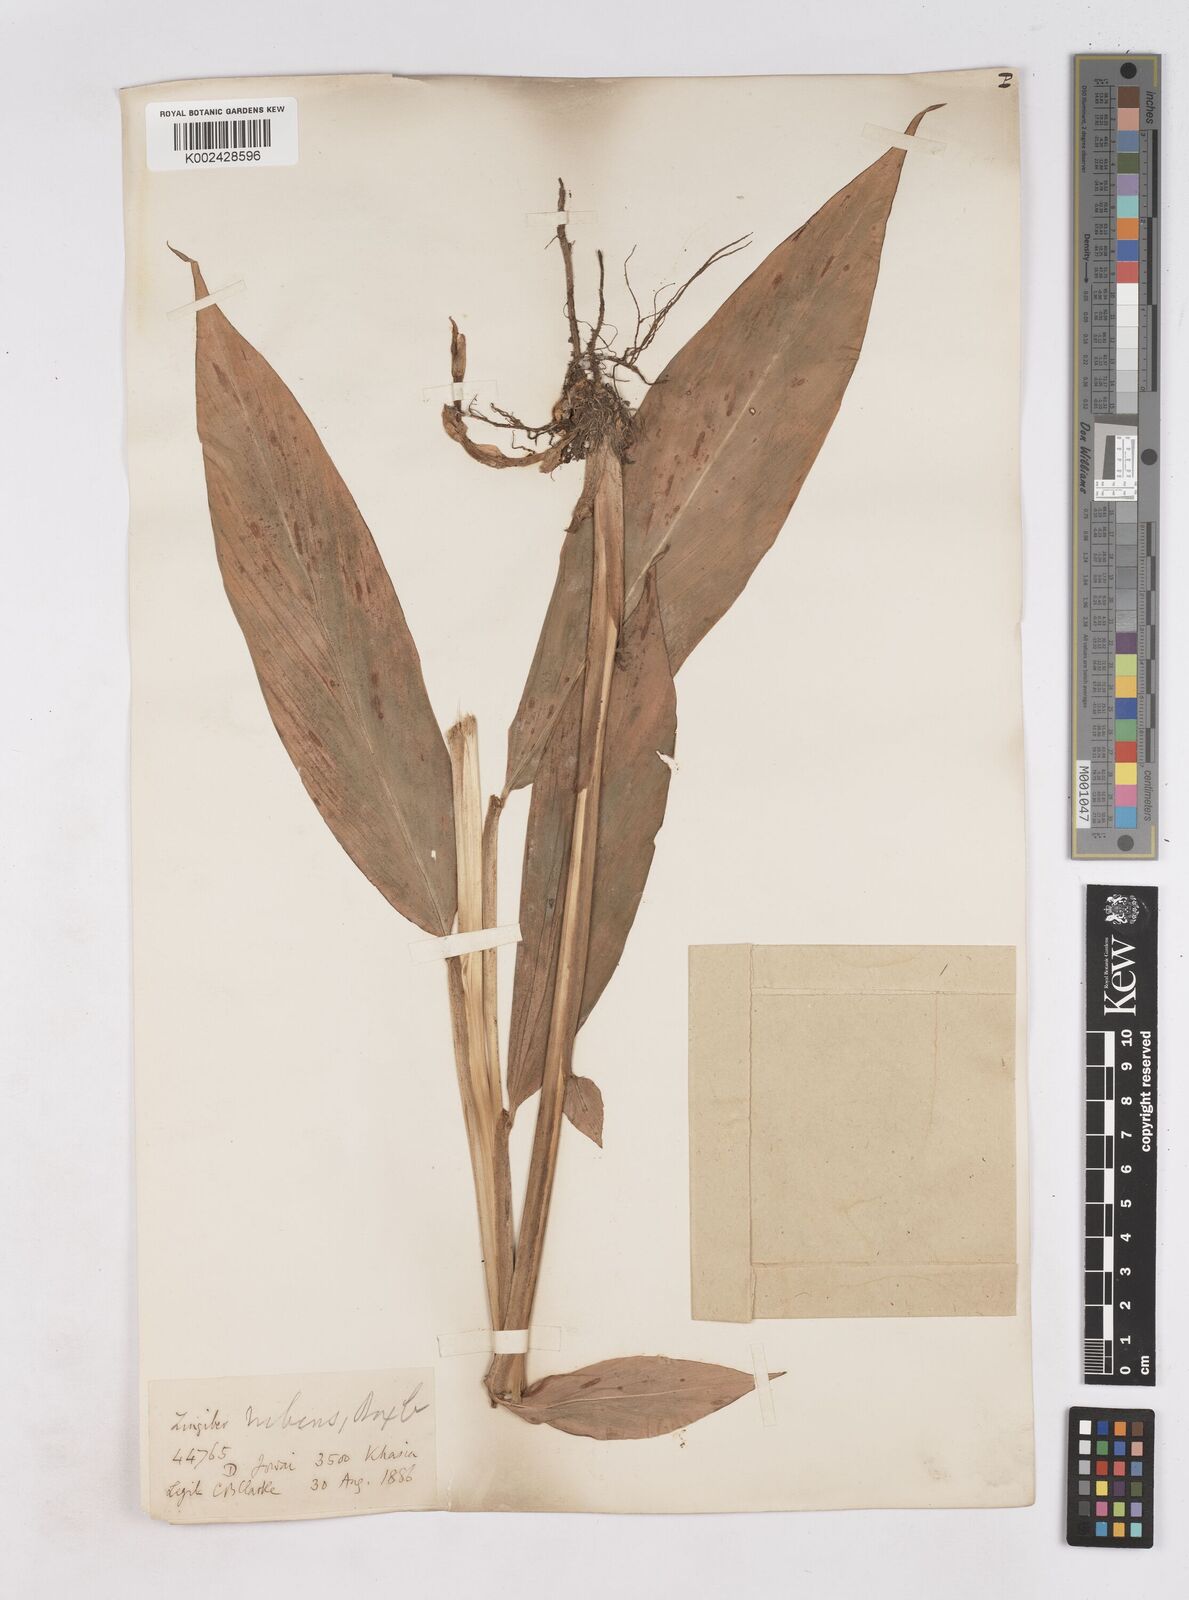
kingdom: Plantae
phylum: Tracheophyta
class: Liliopsida
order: Zingiberales
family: Zingiberaceae
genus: Zingiber
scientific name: Zingiber rubens
